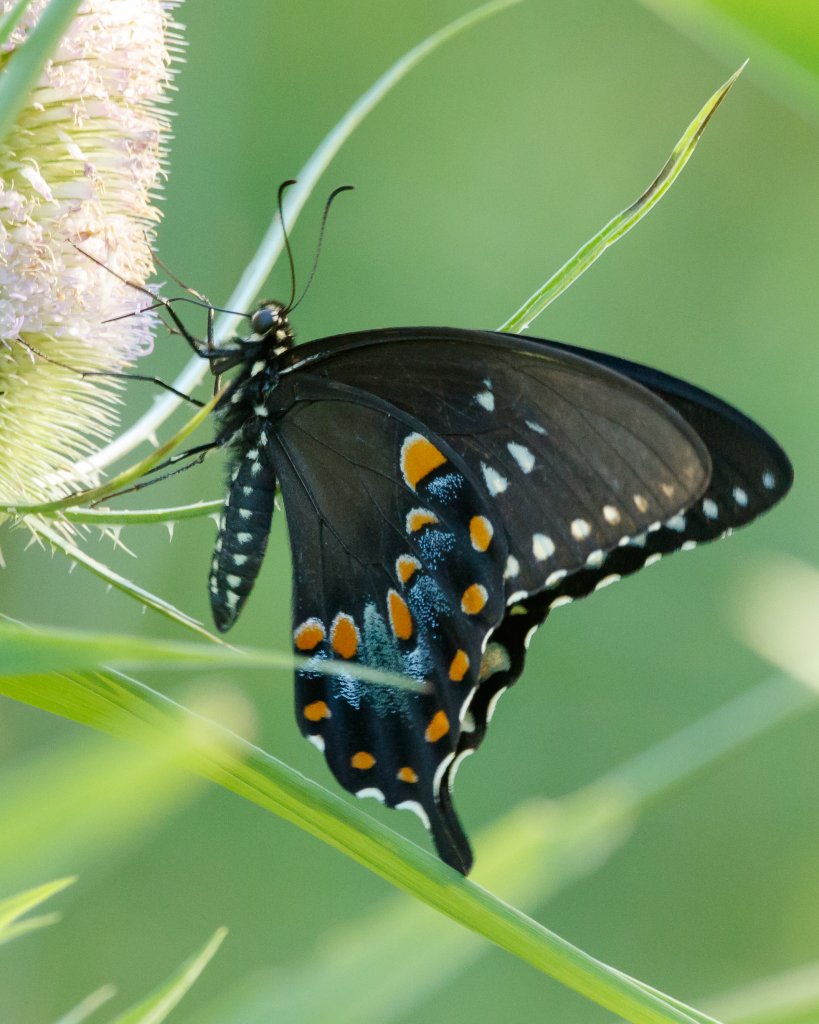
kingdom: Animalia
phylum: Arthropoda
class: Insecta
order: Lepidoptera
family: Papilionidae
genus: Pterourus
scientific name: Pterourus troilus
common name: Spicebush Swallowtail
